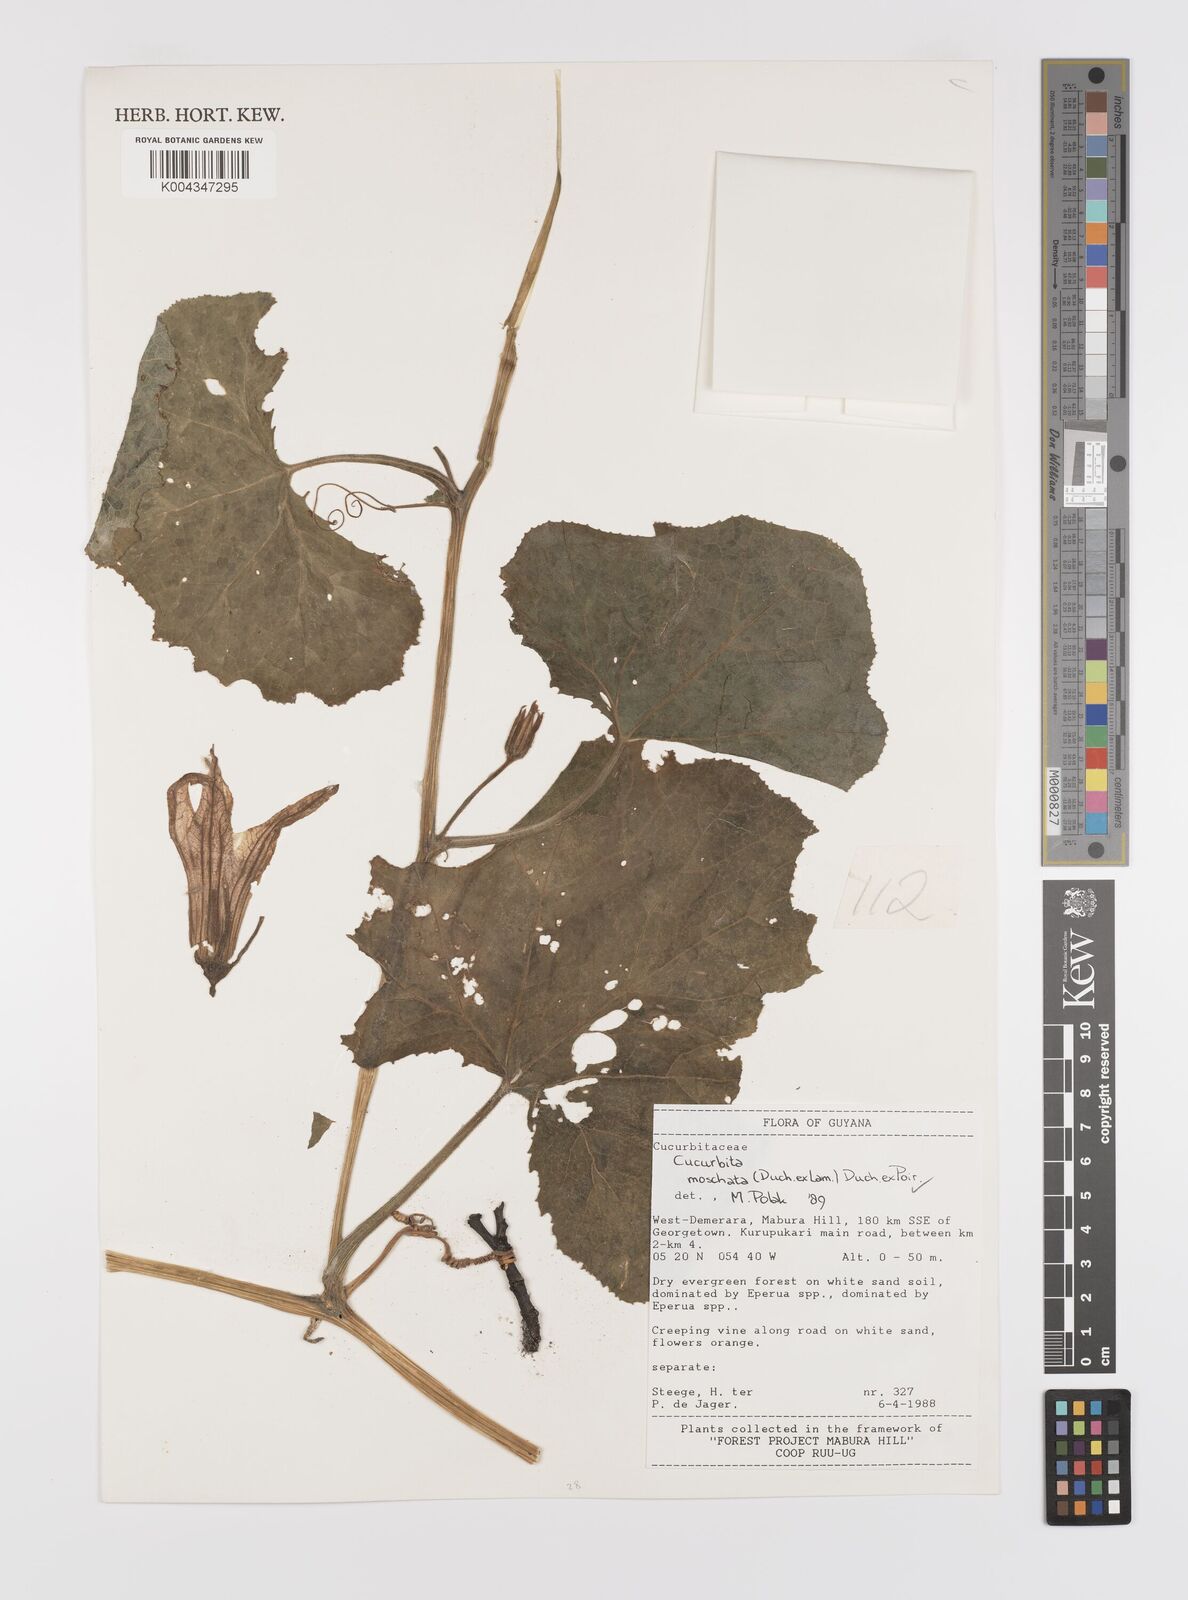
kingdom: Plantae
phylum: Tracheophyta
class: Magnoliopsida
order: Cucurbitales
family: Cucurbitaceae
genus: Cucurbita
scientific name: Cucurbita moschata
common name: Squash / pumpkin
